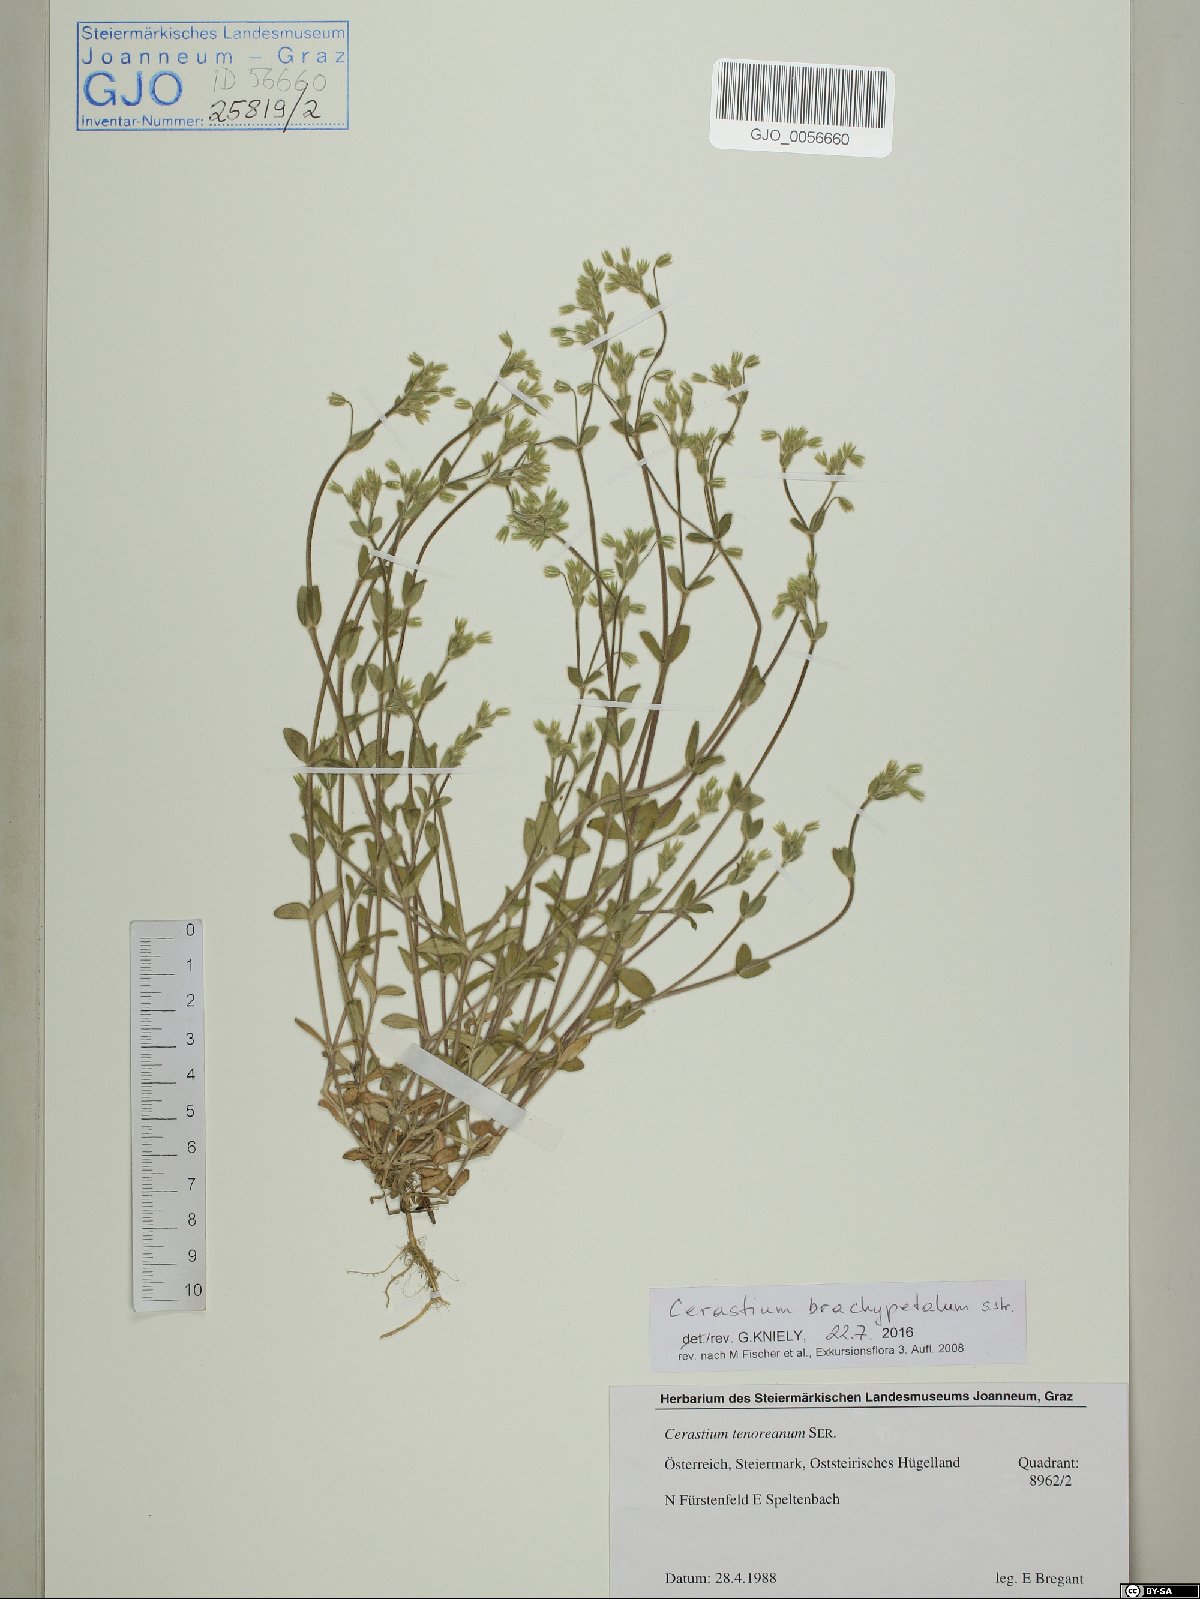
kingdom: Plantae
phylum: Tracheophyta
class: Magnoliopsida
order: Caryophyllales
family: Caryophyllaceae
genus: Cerastium
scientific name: Cerastium brachypetalum
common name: Grey mouse-ear
